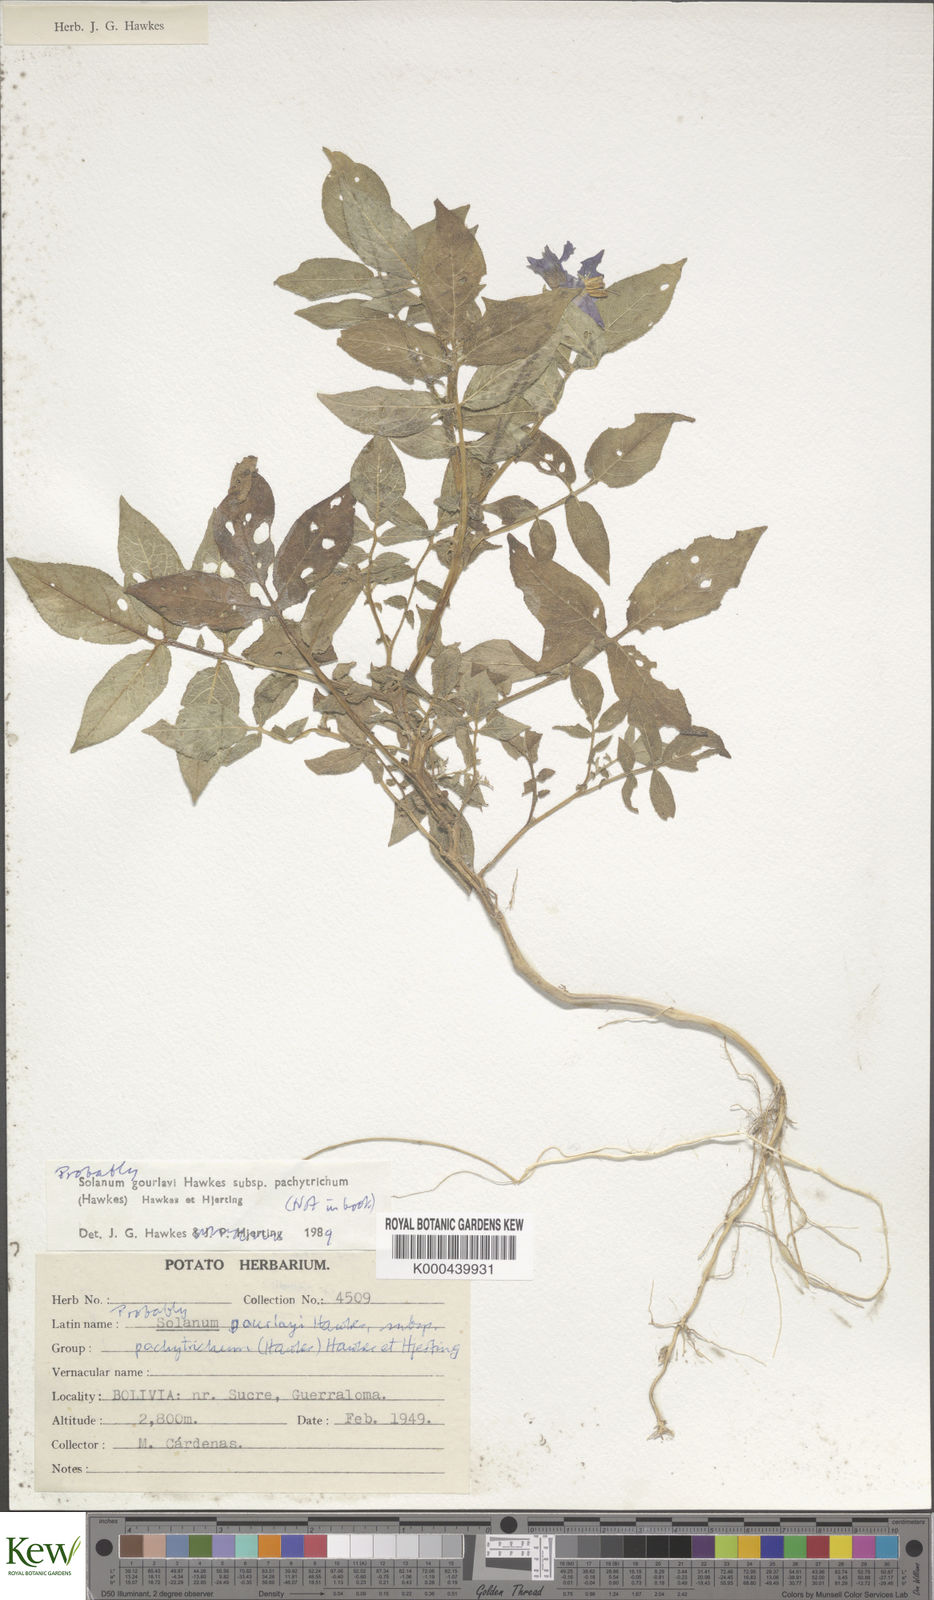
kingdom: Plantae
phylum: Tracheophyta
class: Magnoliopsida
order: Solanales
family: Solanaceae
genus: Solanum
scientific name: Solanum brevicaule
